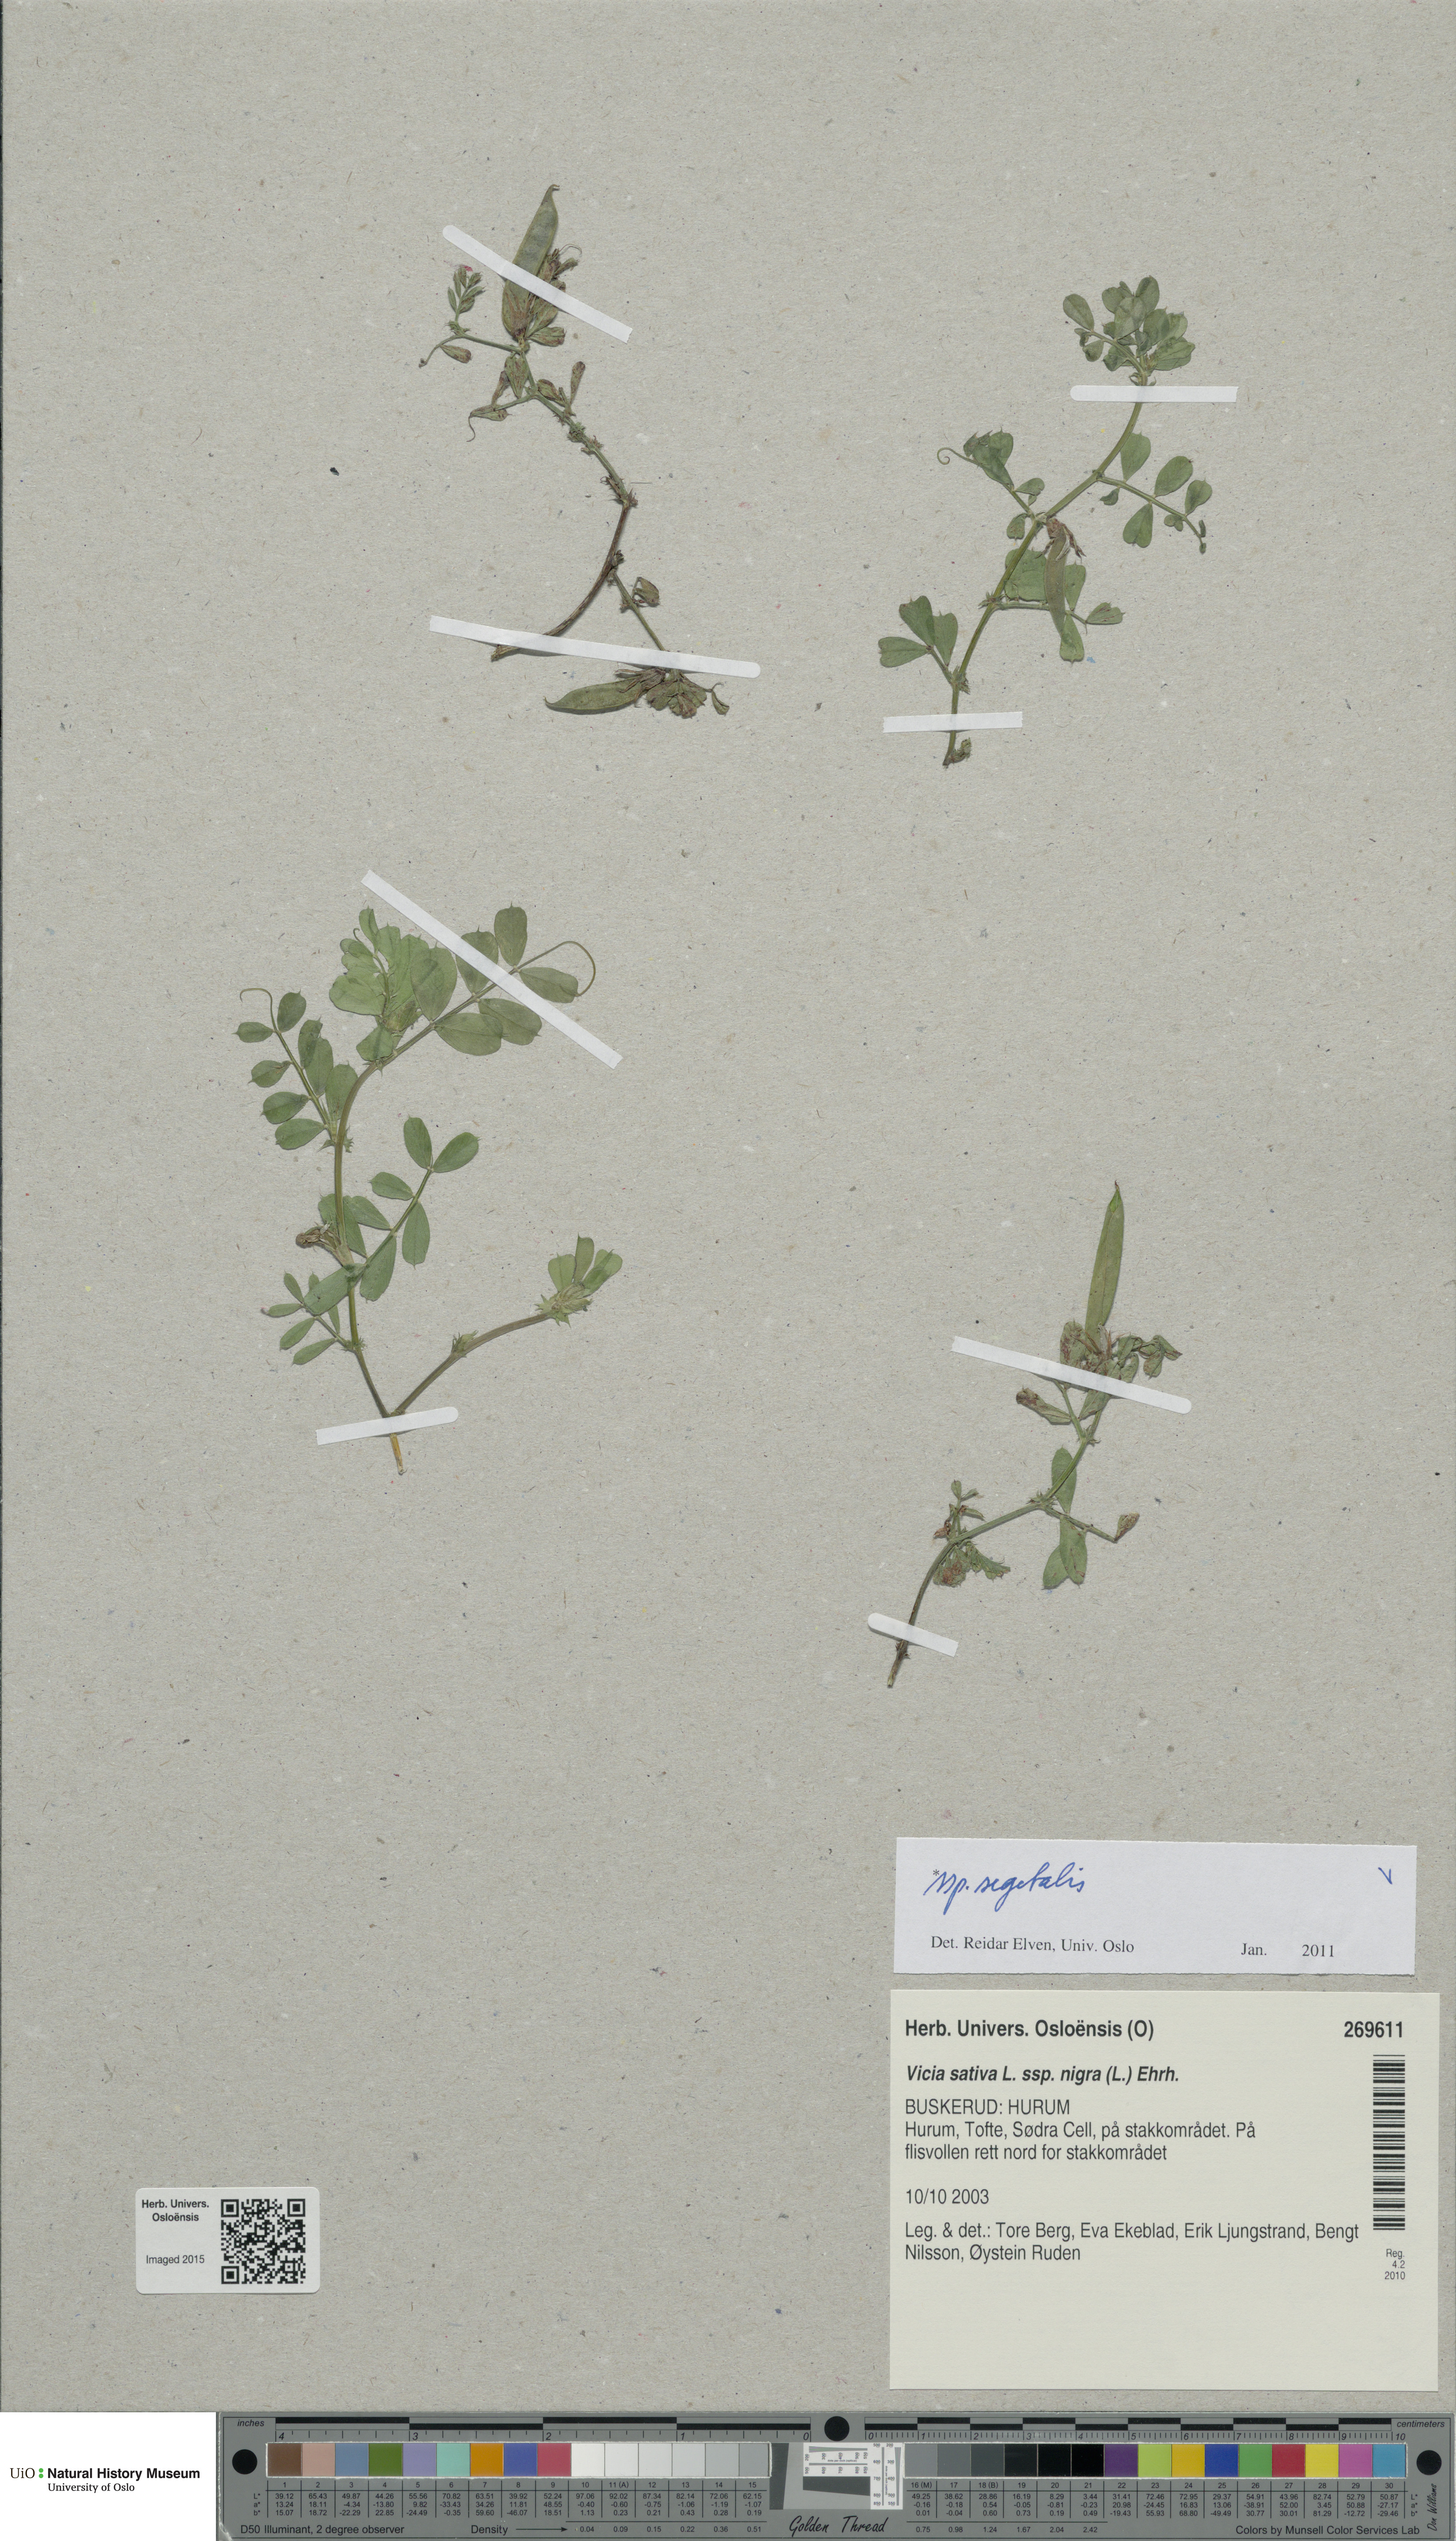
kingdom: Plantae
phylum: Tracheophyta
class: Magnoliopsida
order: Fabales
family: Fabaceae
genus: Vicia
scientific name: Vicia sativa
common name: Garden vetch
